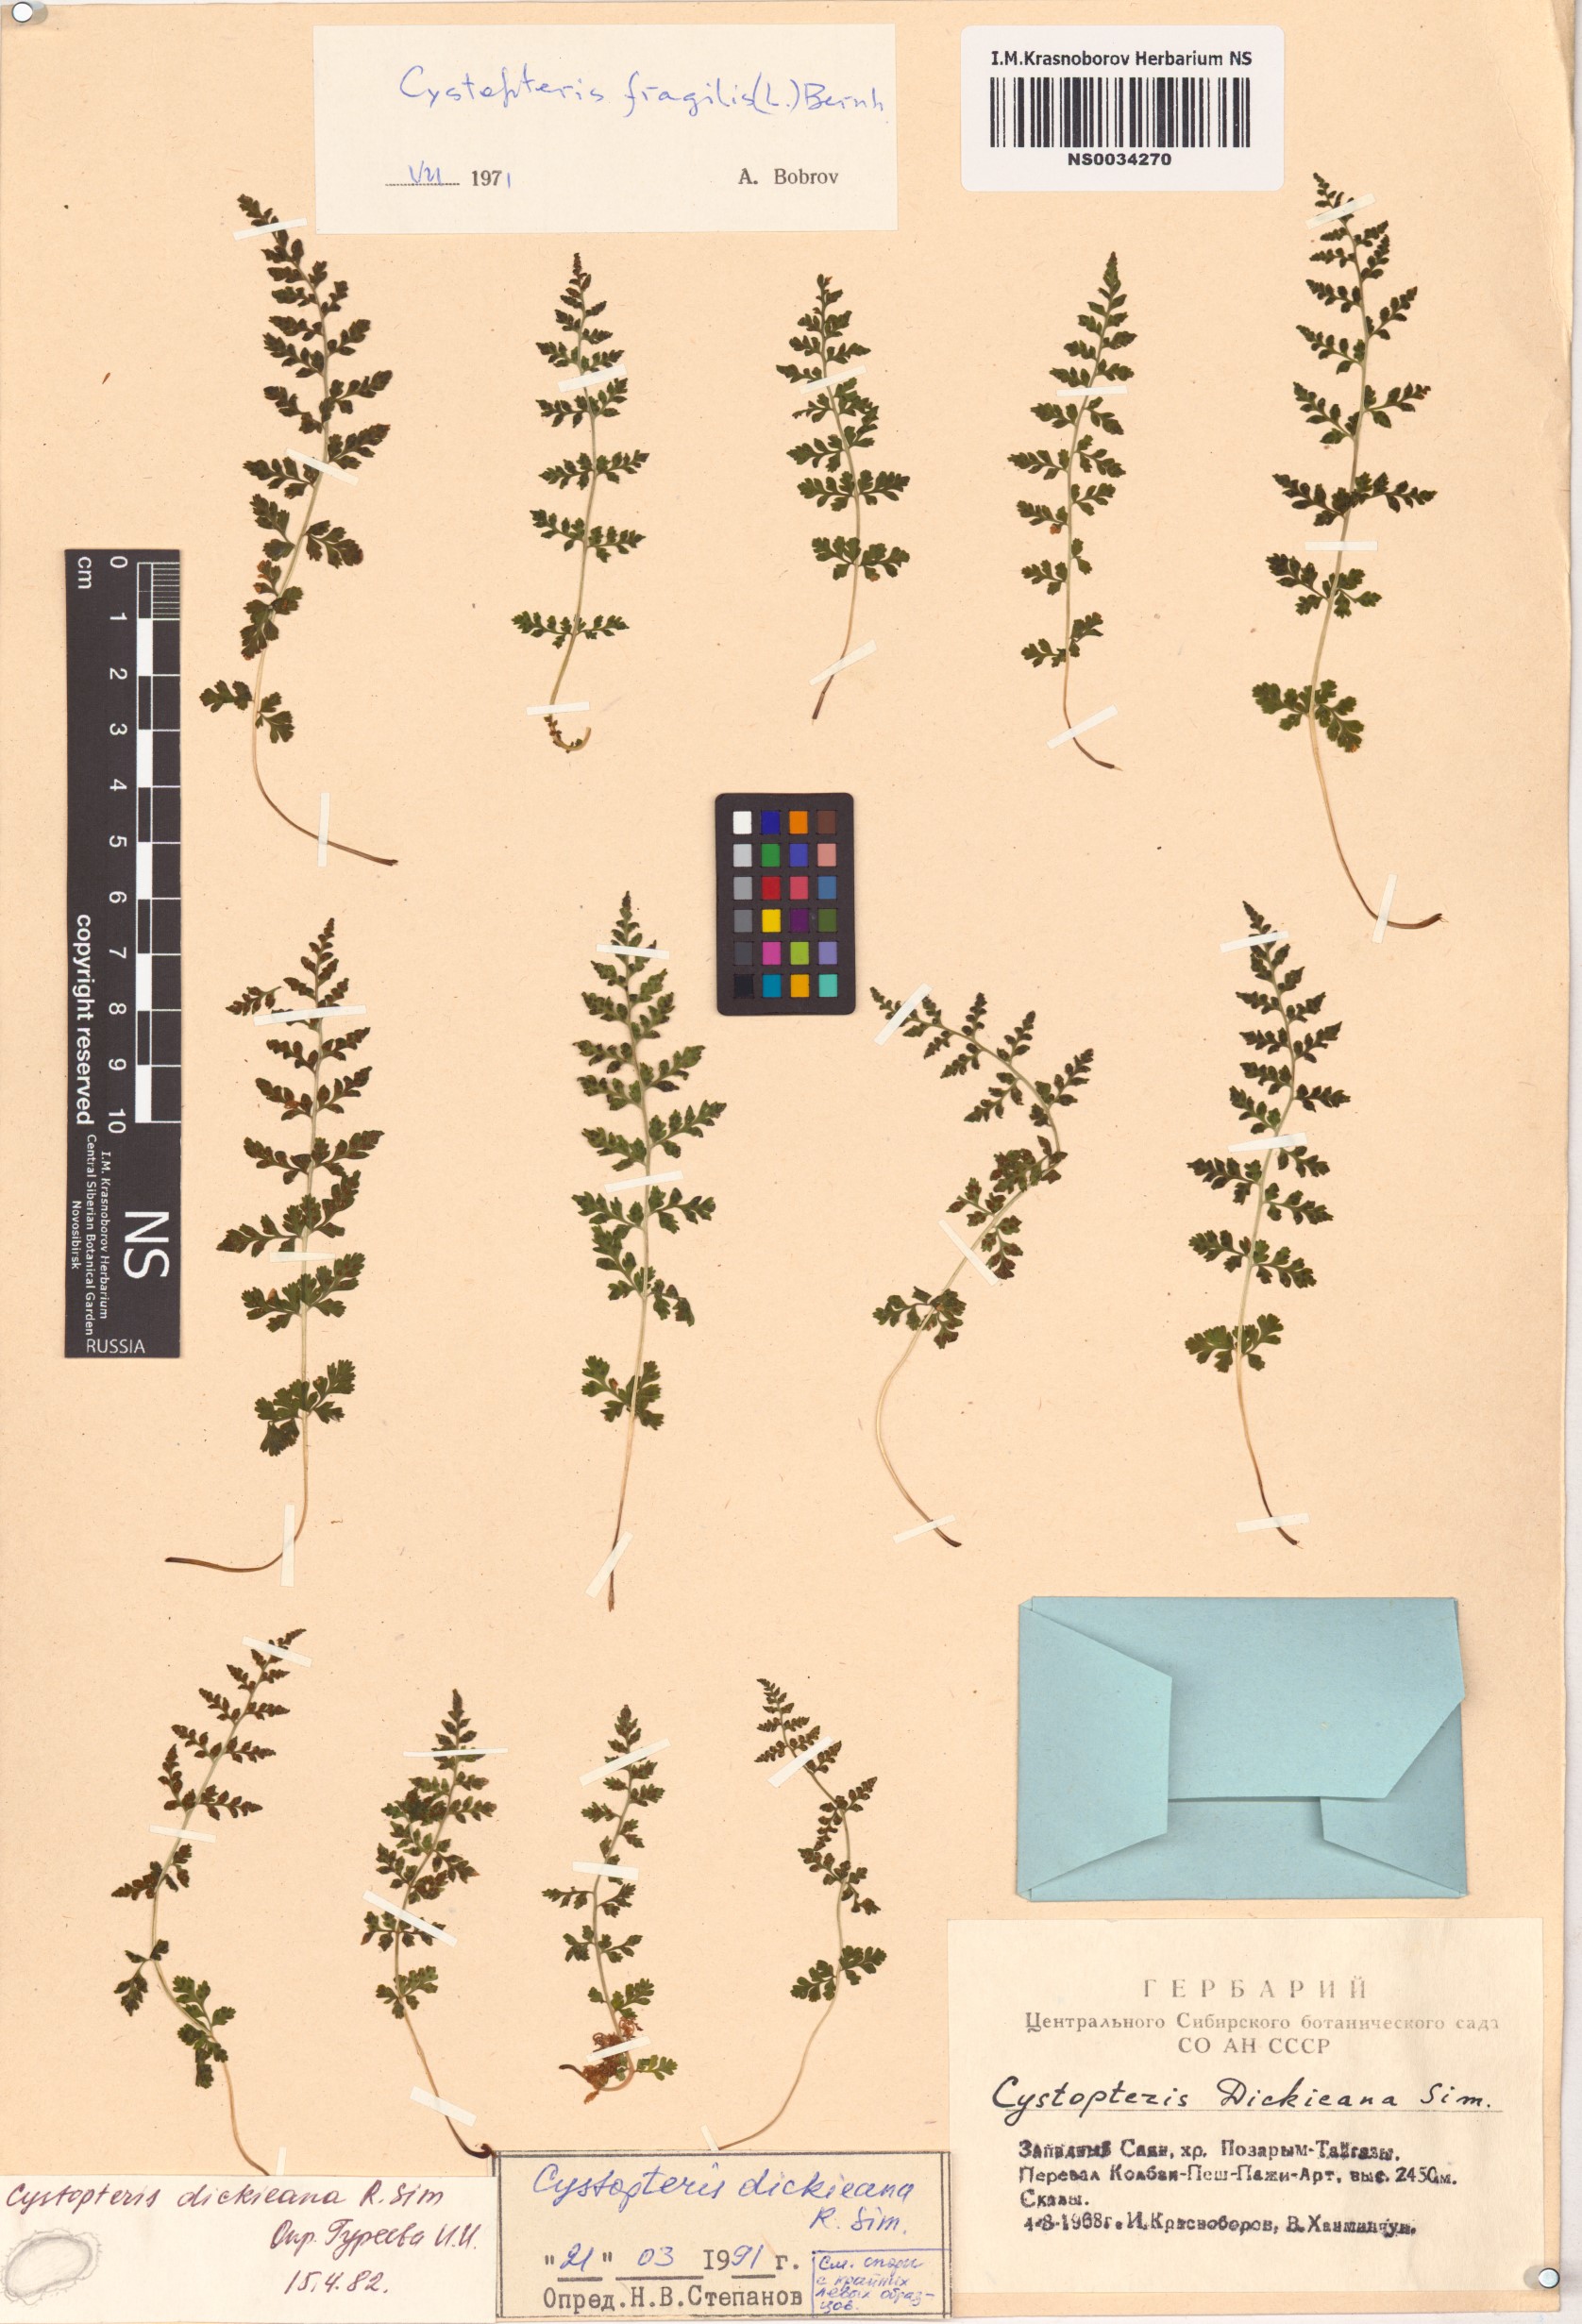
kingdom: Plantae
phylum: Tracheophyta
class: Polypodiopsida
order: Polypodiales
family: Cystopteridaceae
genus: Cystopteris
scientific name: Cystopteris dickieana
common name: Dickie's bladder-fern
